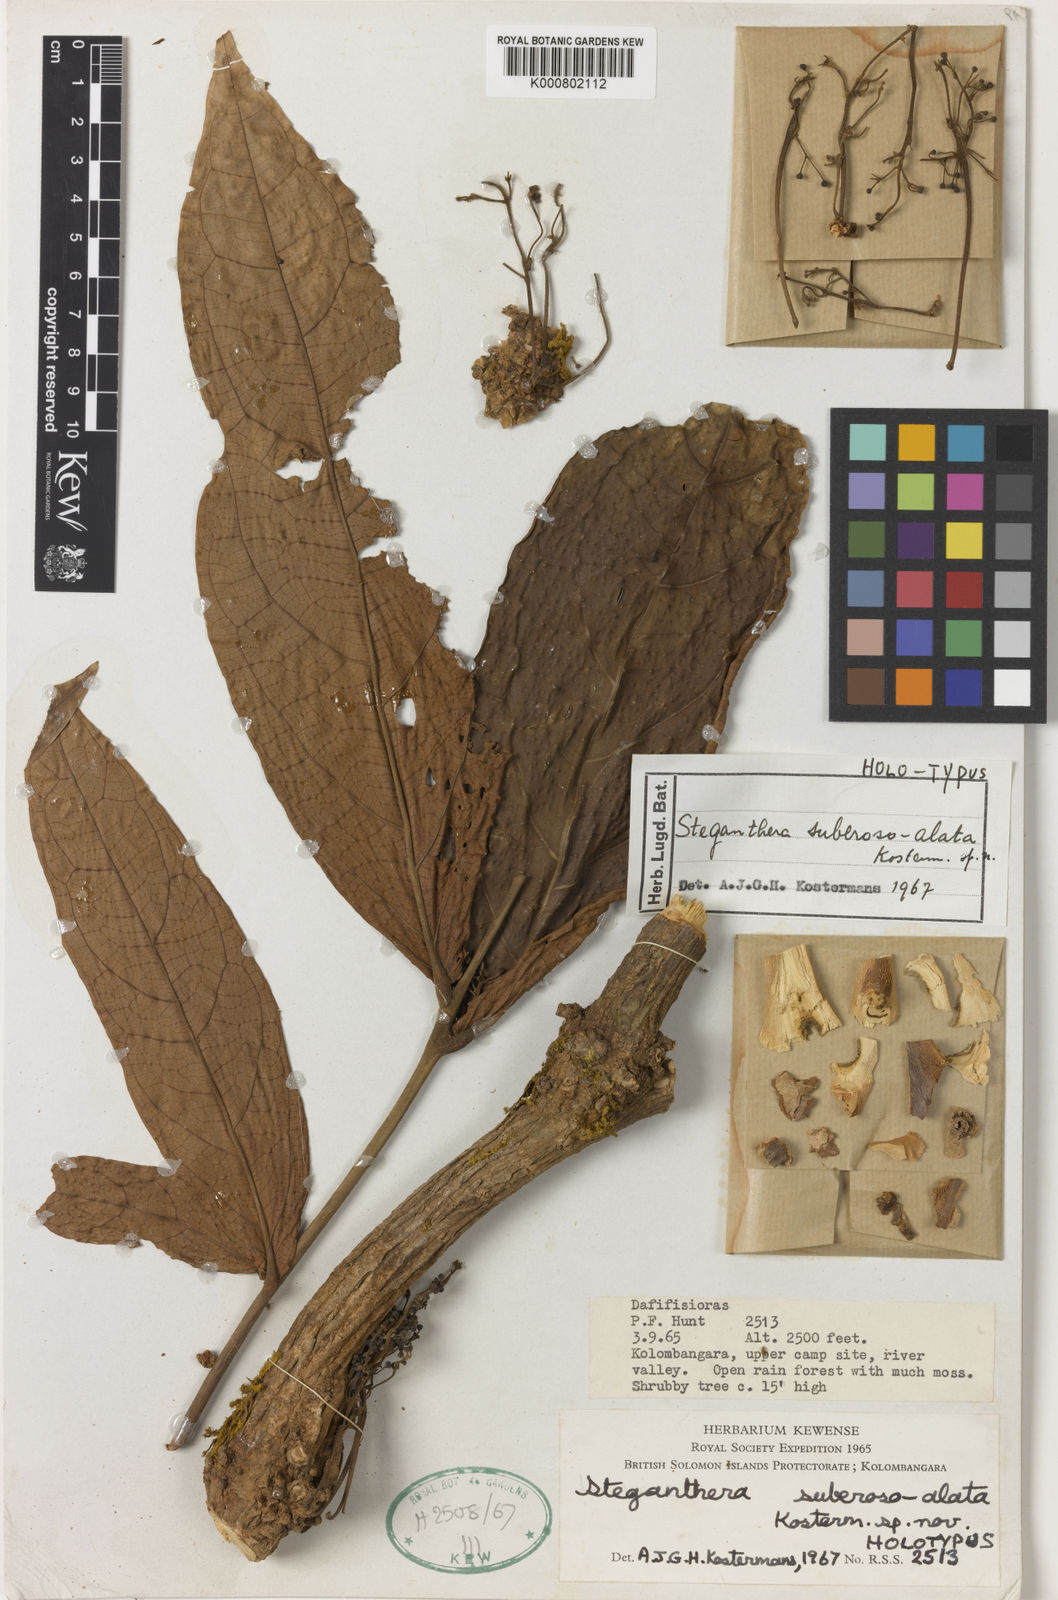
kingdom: Plantae
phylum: Tracheophyta
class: Magnoliopsida
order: Laurales
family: Monimiaceae
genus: Steganthera
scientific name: Steganthera salomonensis
